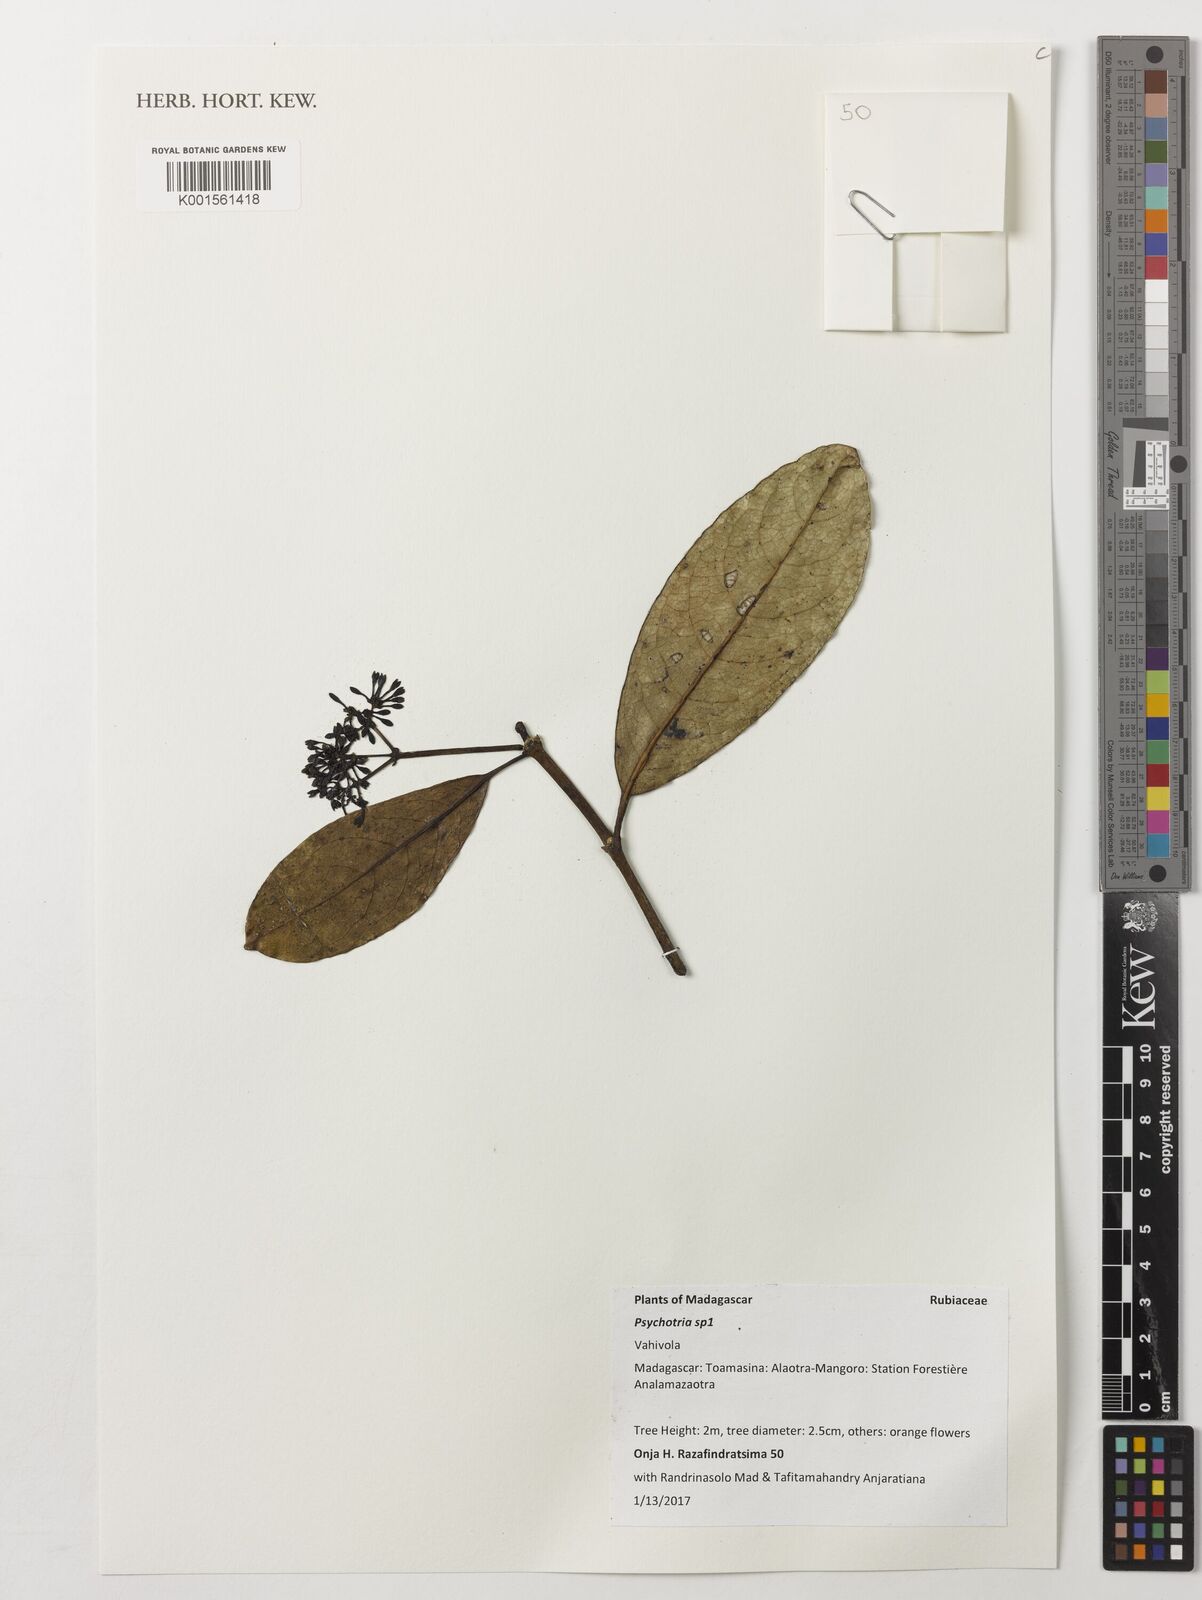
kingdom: Plantae
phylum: Tracheophyta
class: Magnoliopsida
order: Gentianales
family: Rubiaceae
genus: Psychotria
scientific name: Psychotria
